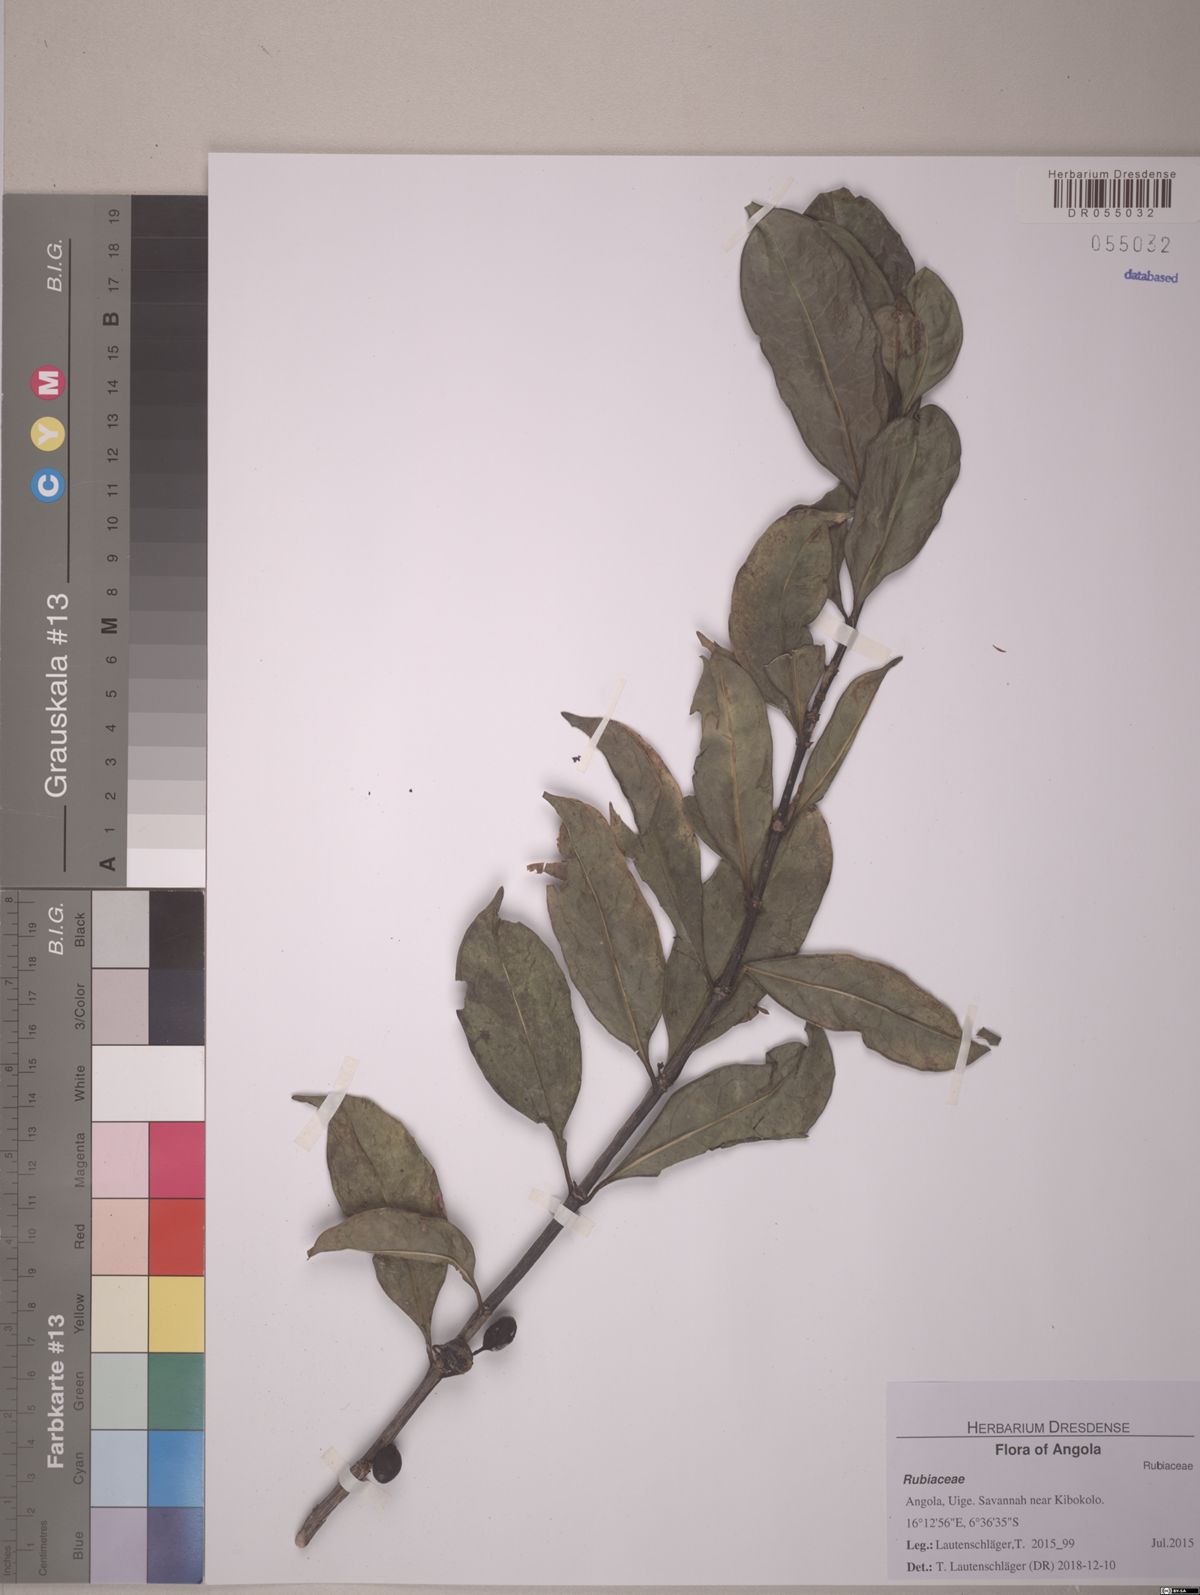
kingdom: Plantae
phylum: Tracheophyta
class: Magnoliopsida
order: Gentianales
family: Rubiaceae
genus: Colletoecema
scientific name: Colletoecema tortistilum
